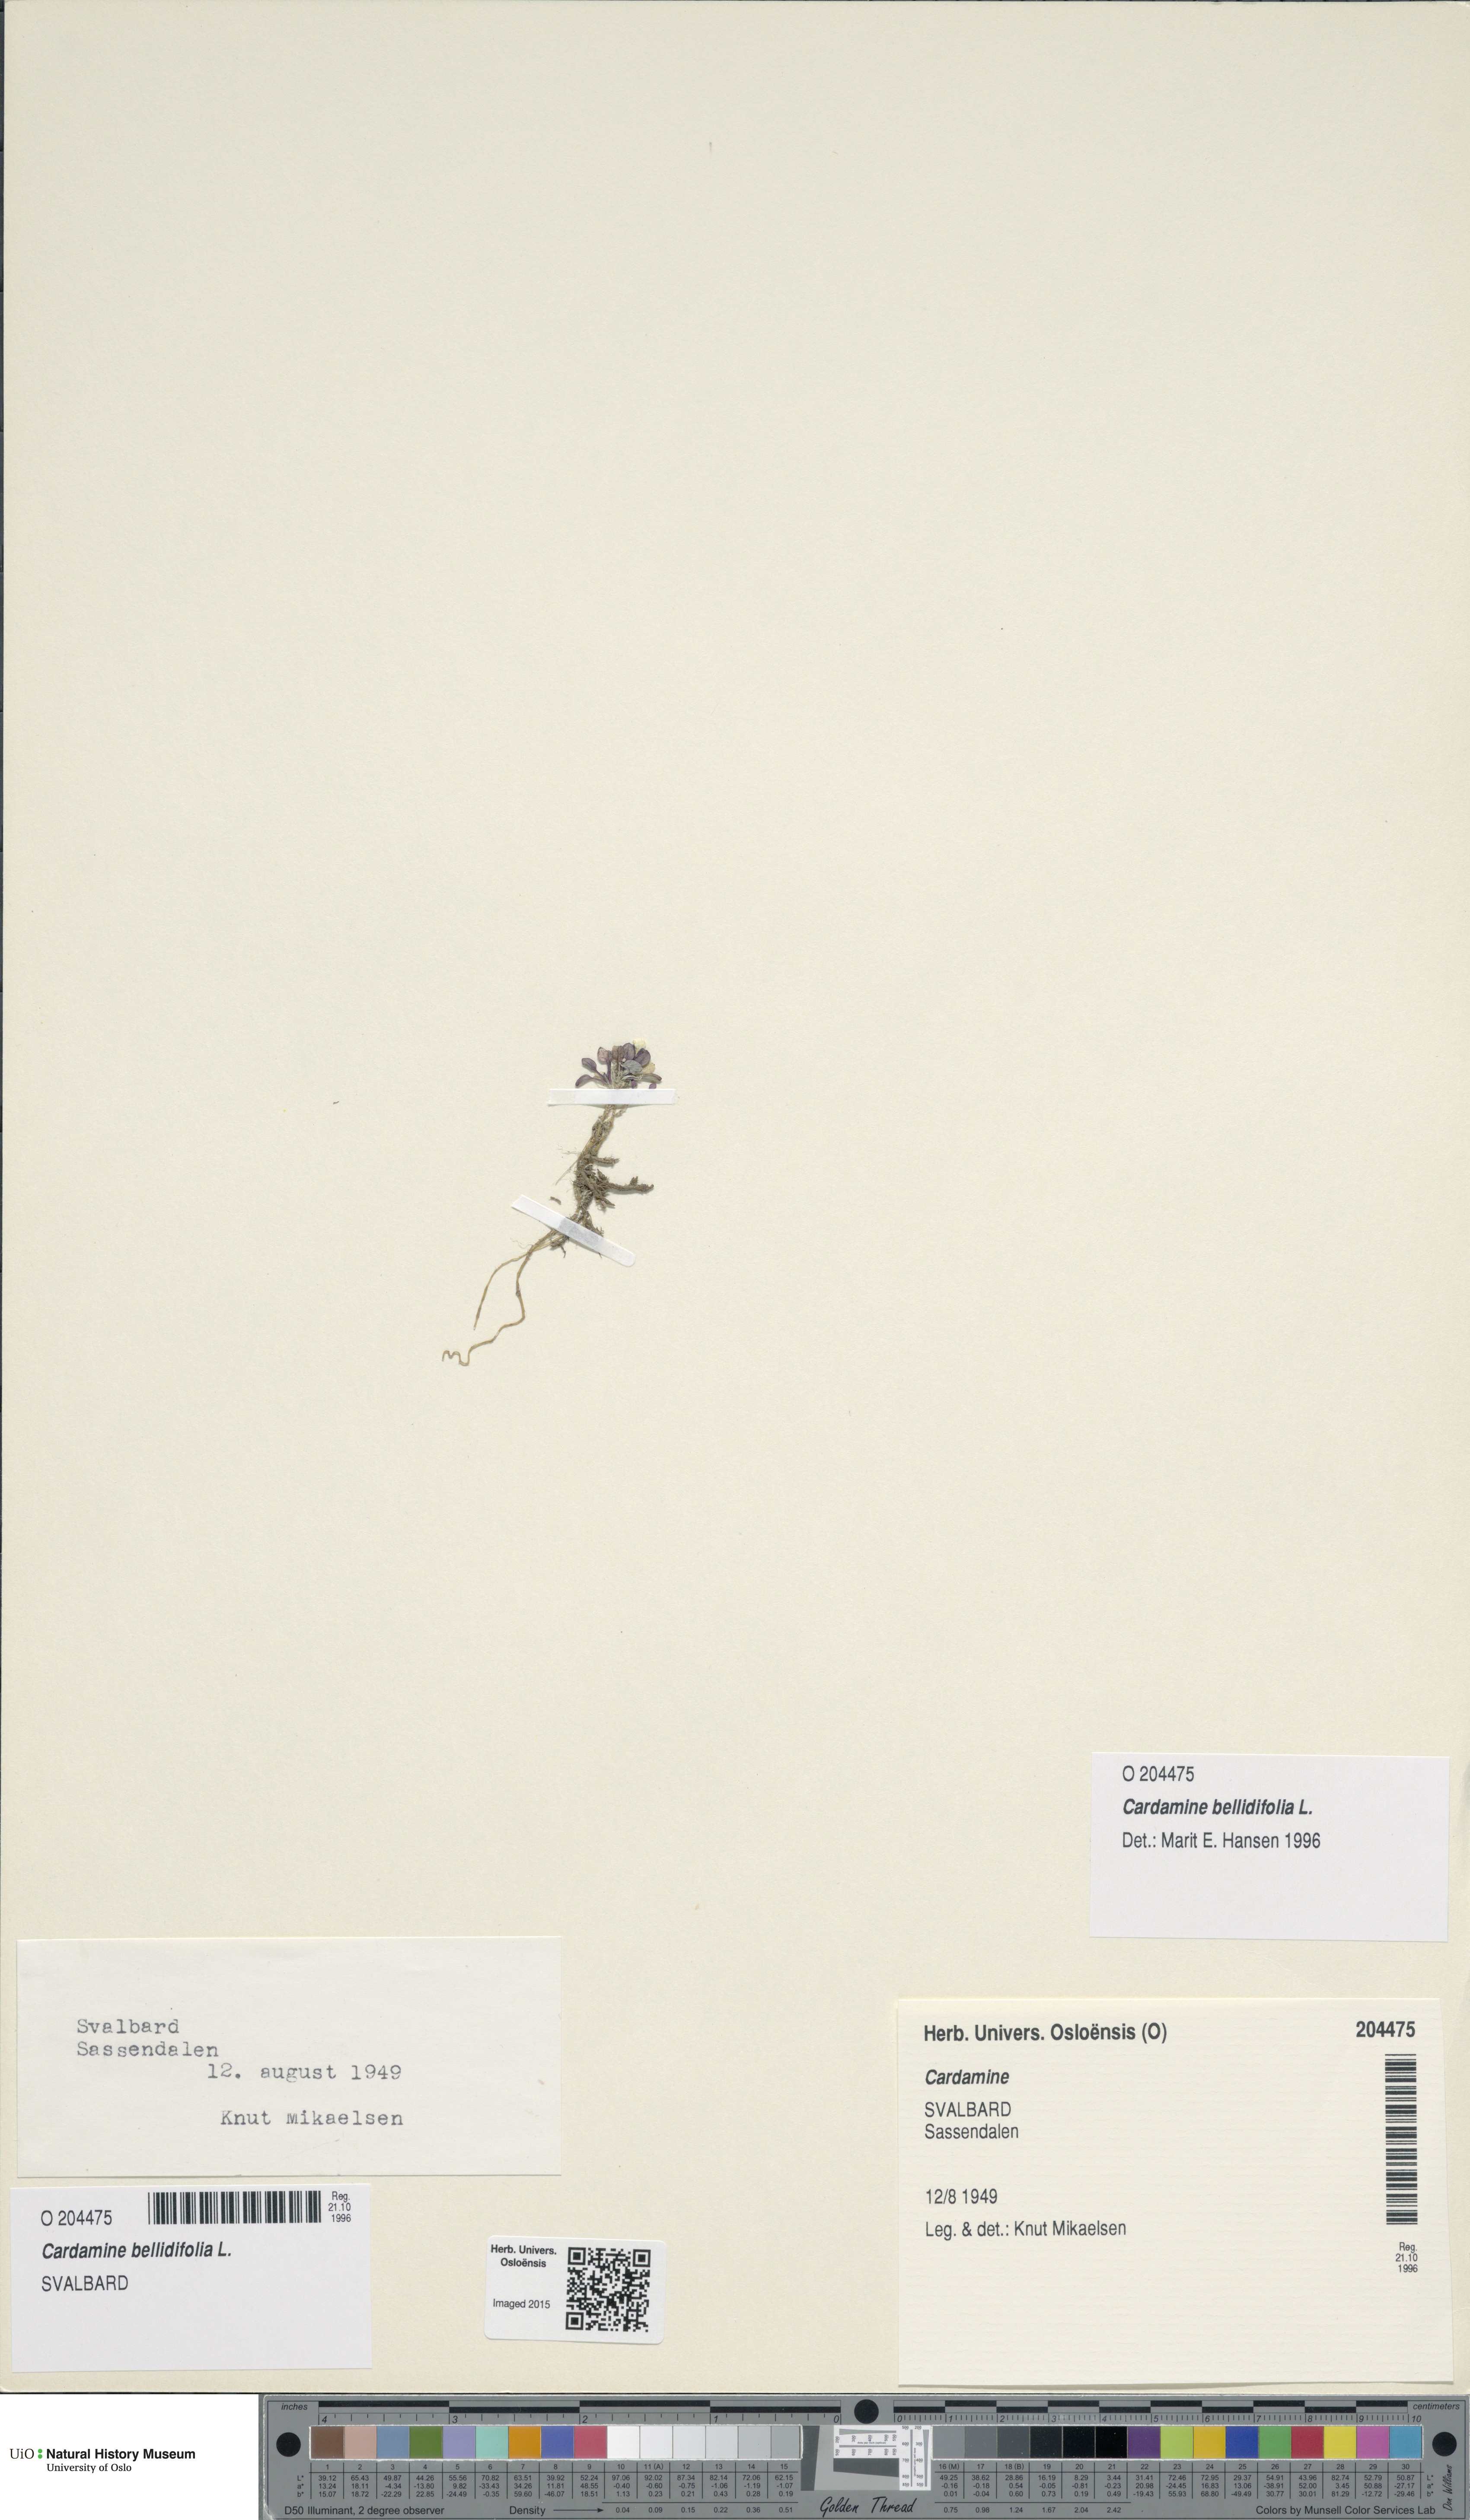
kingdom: Plantae
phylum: Tracheophyta
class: Magnoliopsida
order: Brassicales
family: Brassicaceae
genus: Cardamine
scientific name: Cardamine bellidifolia
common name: Alpine bittercress
